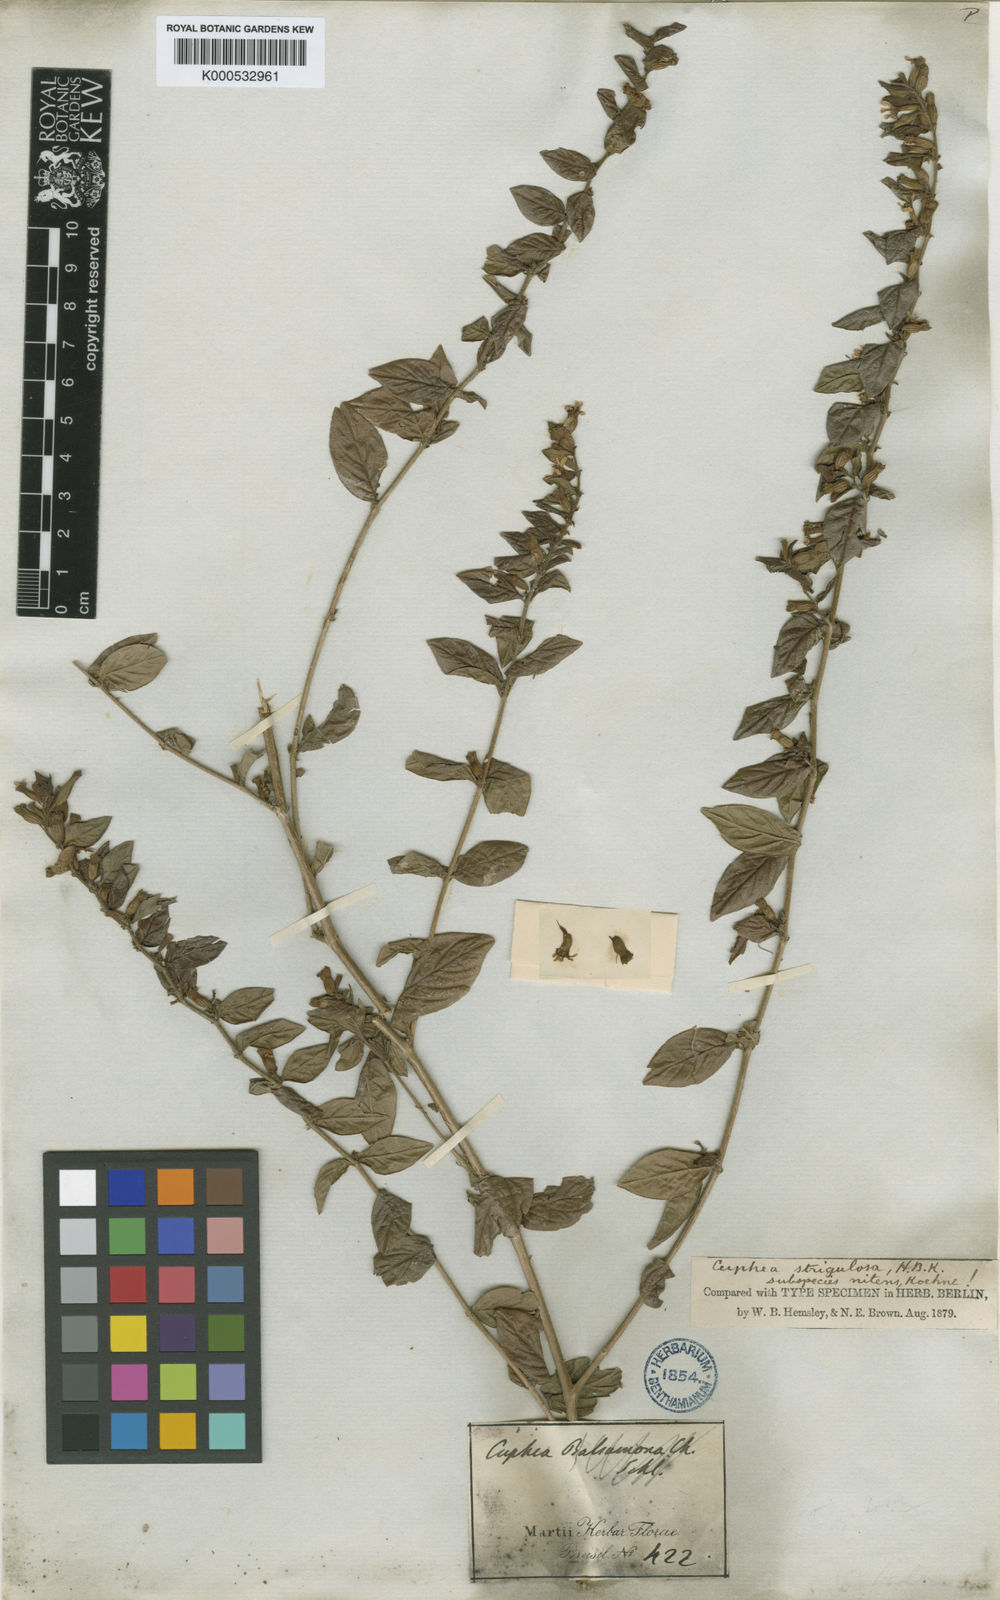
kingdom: Plantae
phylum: Tracheophyta
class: Magnoliopsida
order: Myrtales
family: Lythraceae
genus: Cuphea
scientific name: Cuphea strigulosa
